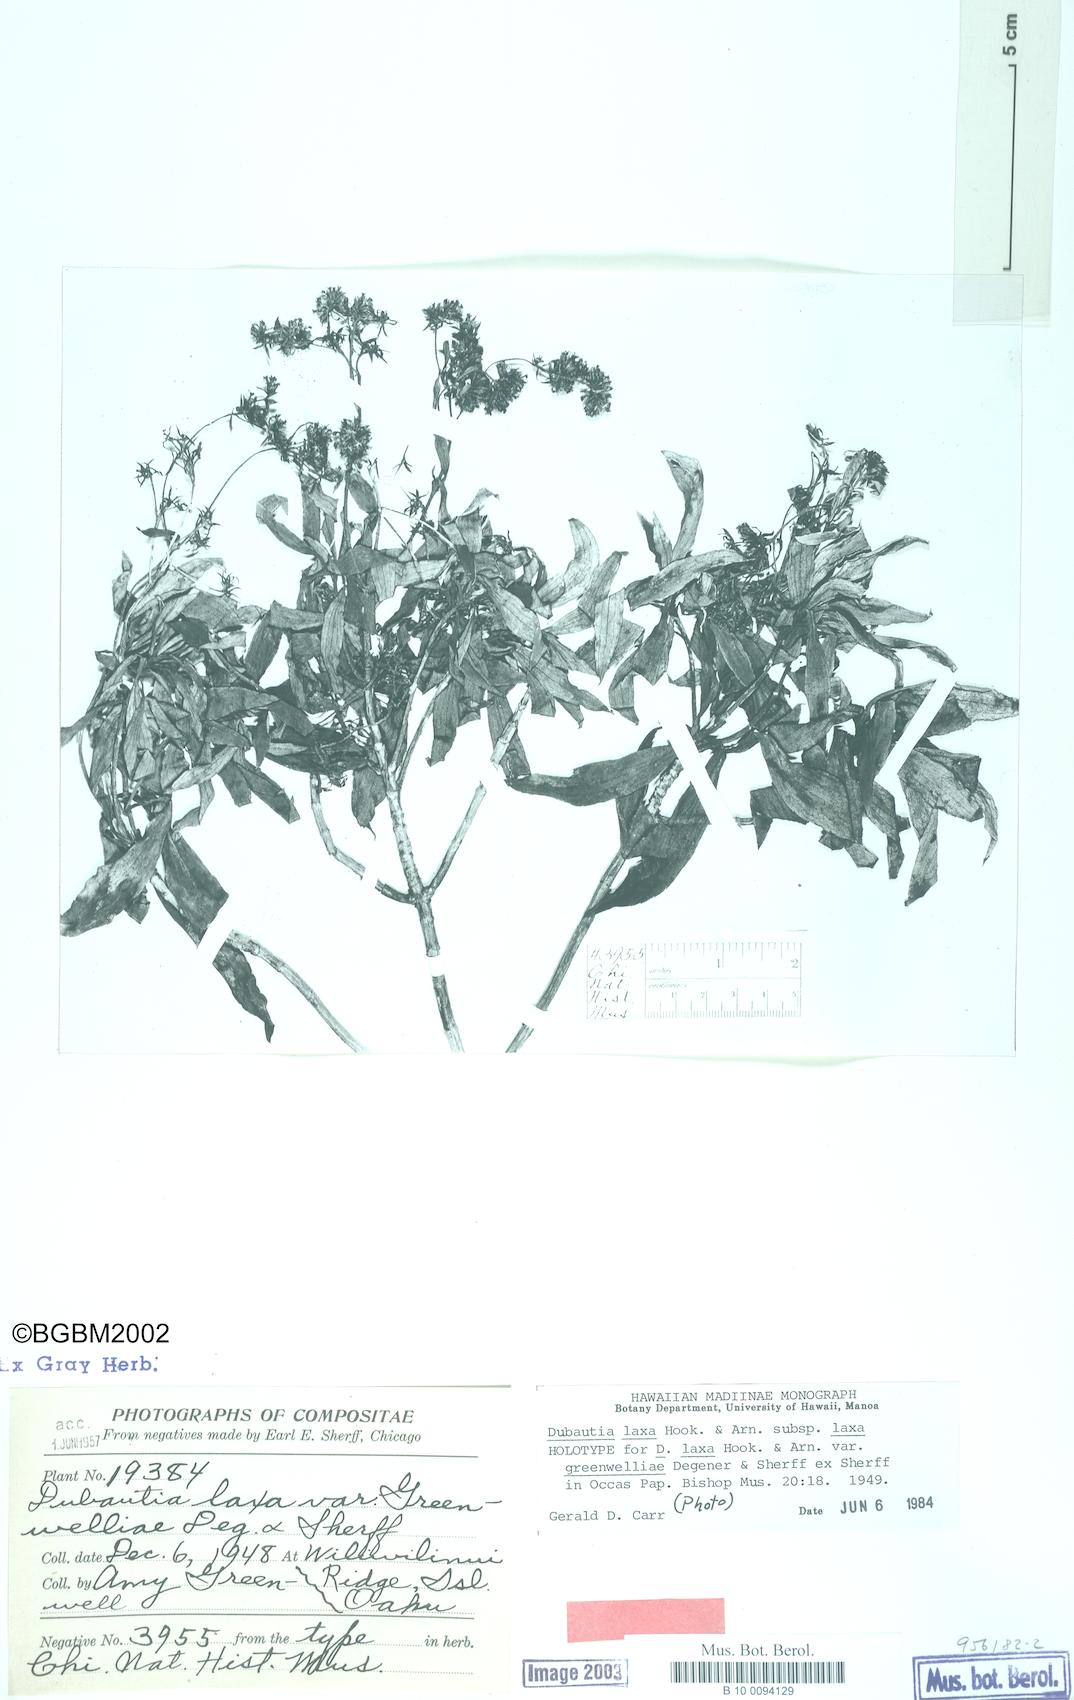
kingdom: Plantae
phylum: Tracheophyta
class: Magnoliopsida
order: Asterales
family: Asteraceae
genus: Dubautia
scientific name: Dubautia laxa
